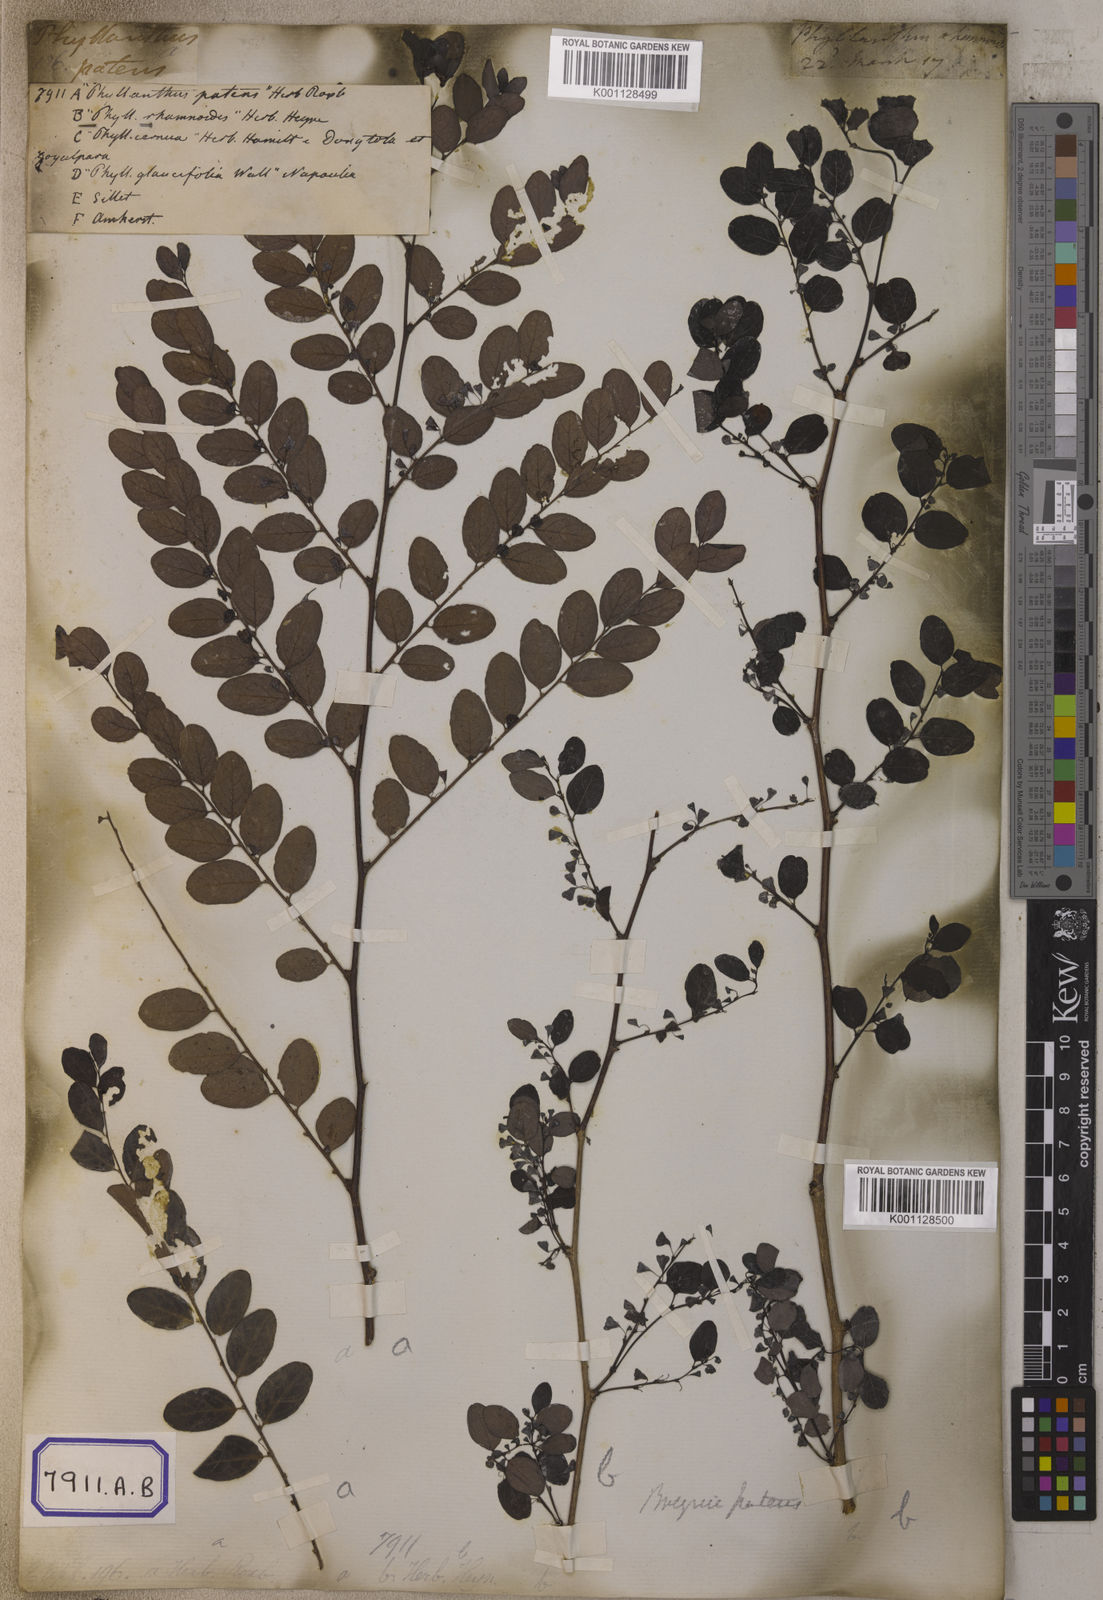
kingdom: Plantae
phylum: Tracheophyta
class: Magnoliopsida
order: Malpighiales
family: Euphorbiaceae
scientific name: Euphorbiaceae
